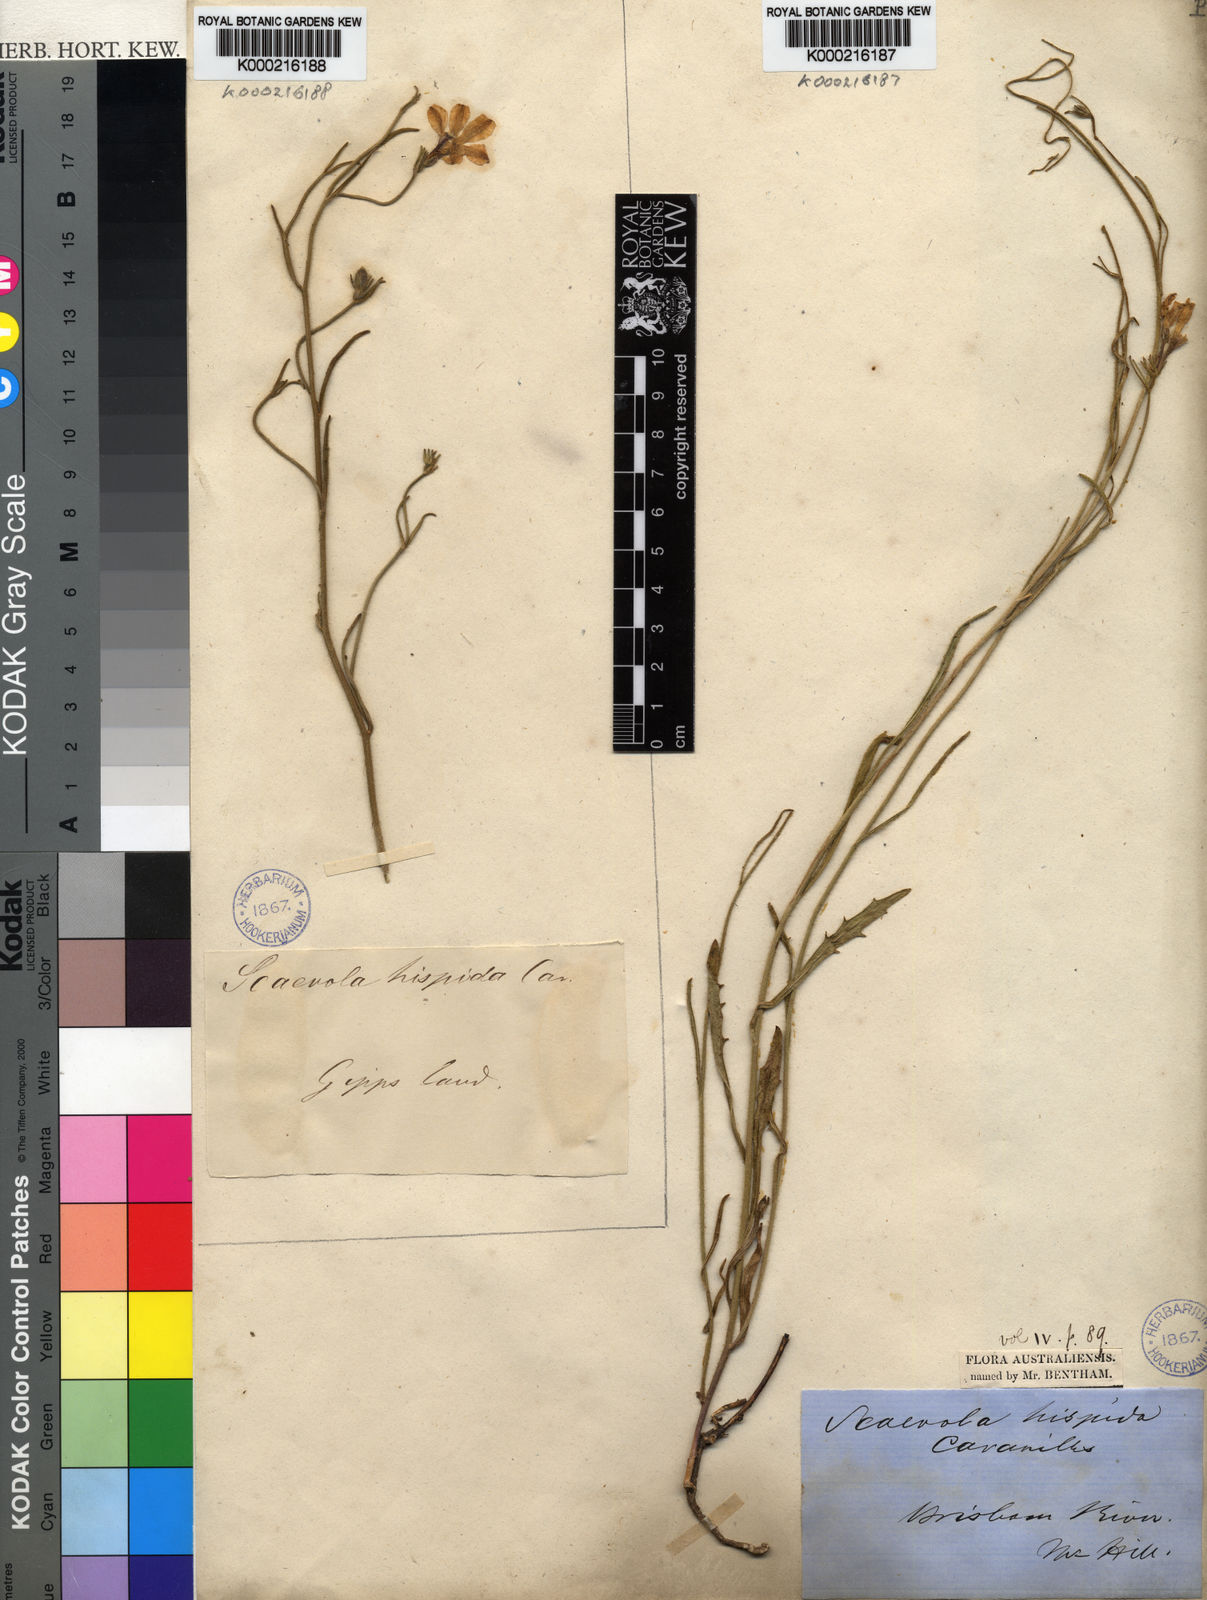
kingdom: Plantae
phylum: Tracheophyta
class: Magnoliopsida
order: Asterales
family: Goodeniaceae
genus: Scaevola
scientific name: Scaevola
